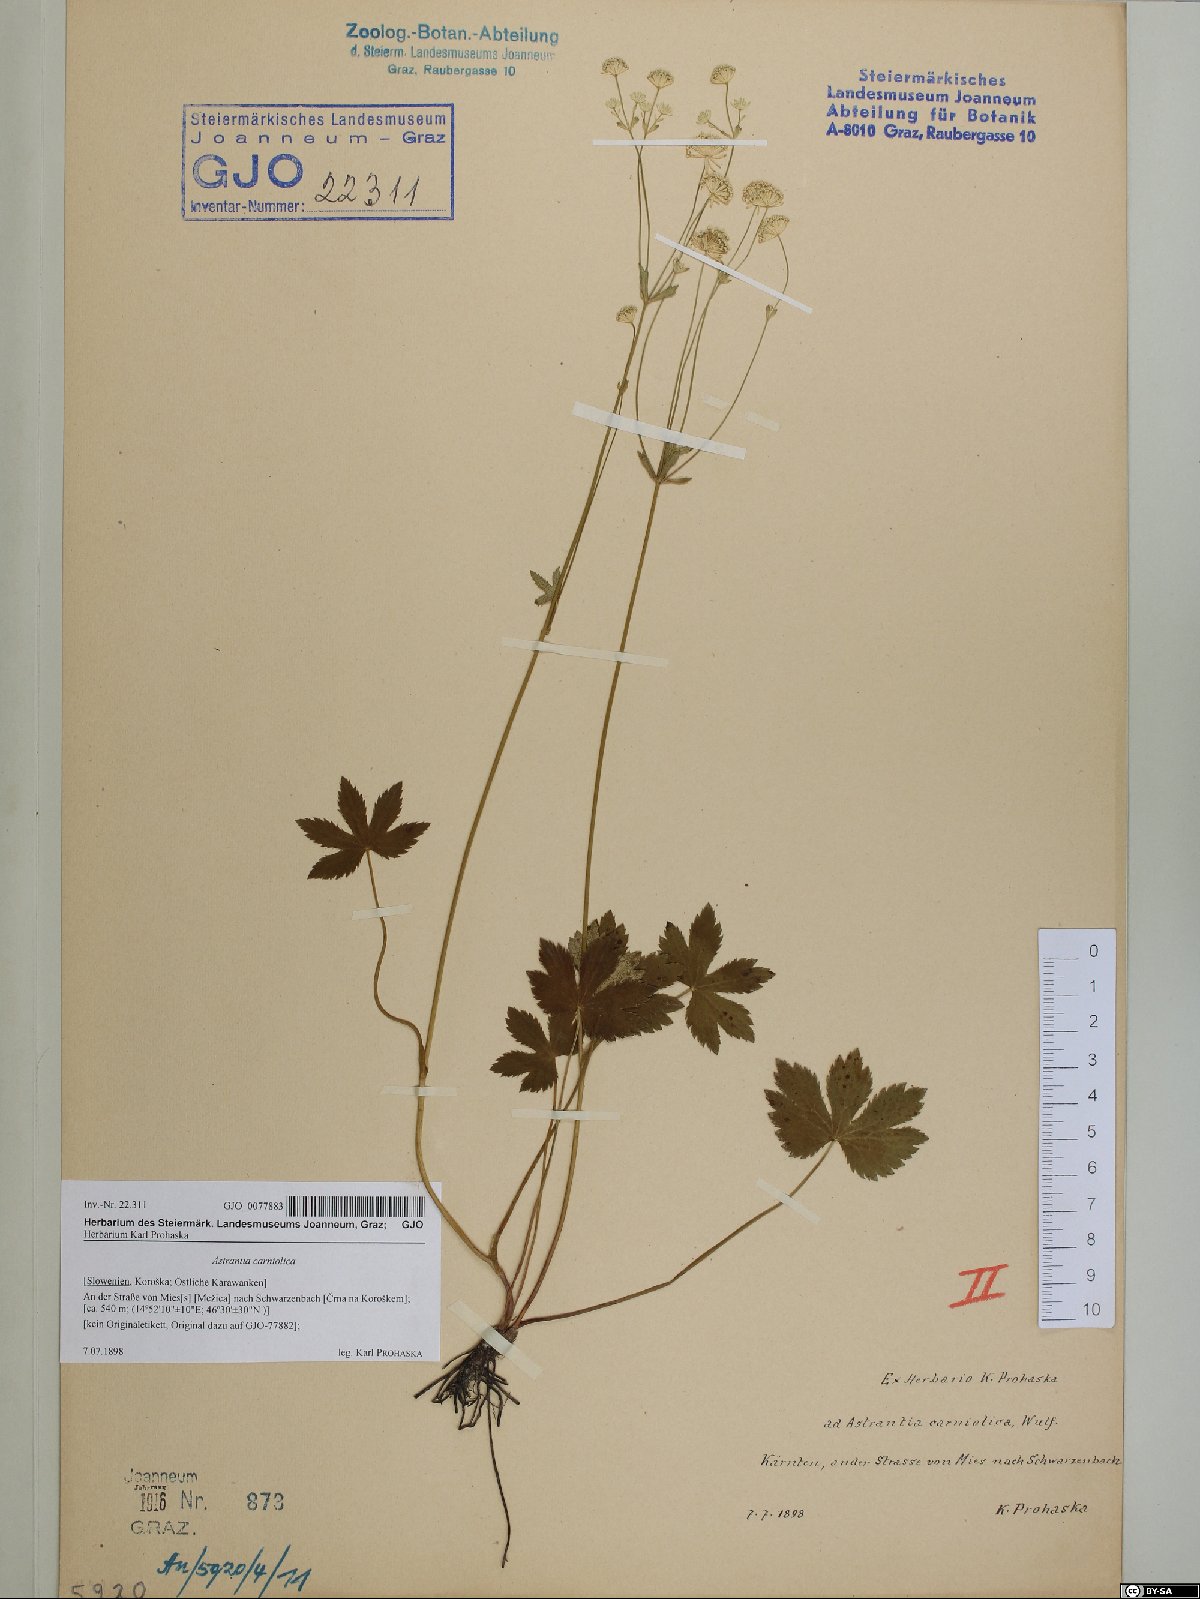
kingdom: Plantae
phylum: Tracheophyta
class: Magnoliopsida
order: Apiales
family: Apiaceae
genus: Astrantia
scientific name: Astrantia carniolica
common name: Carnic masterwort
